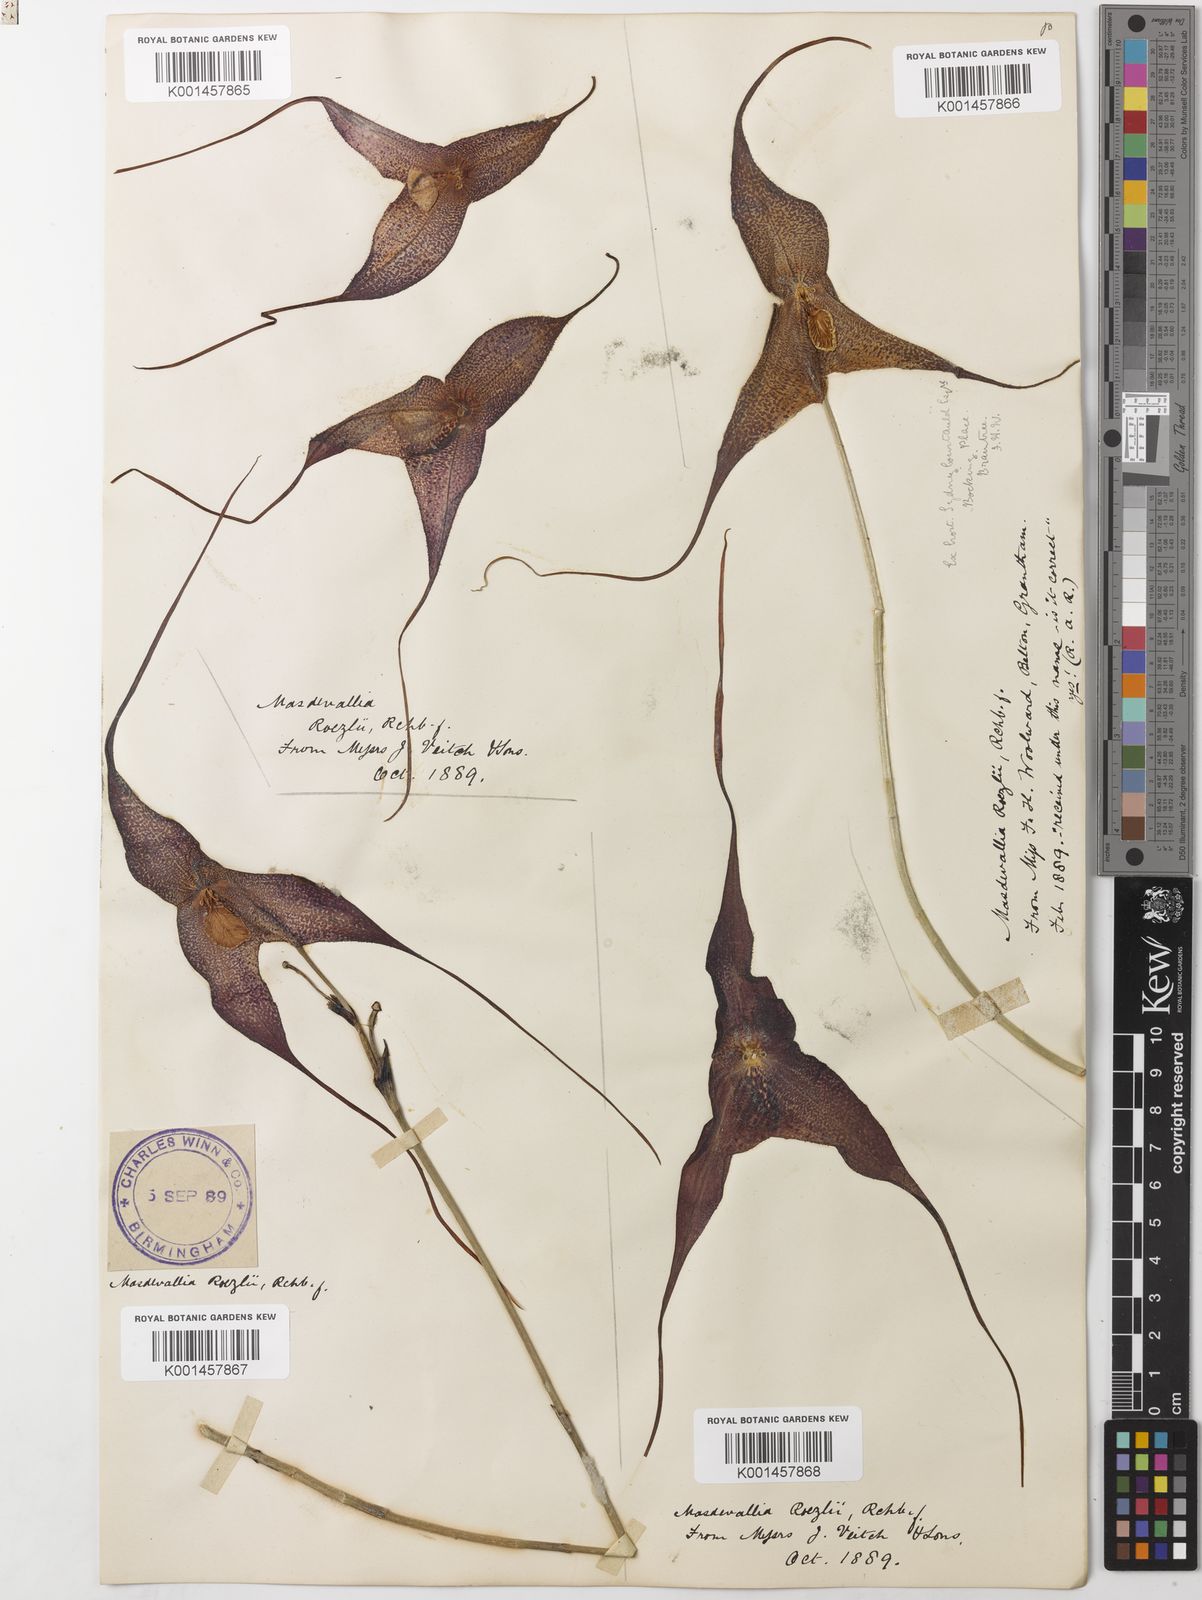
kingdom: Plantae
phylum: Tracheophyta
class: Liliopsida
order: Asparagales
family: Orchidaceae
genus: Dracula
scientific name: Dracula roezlii
